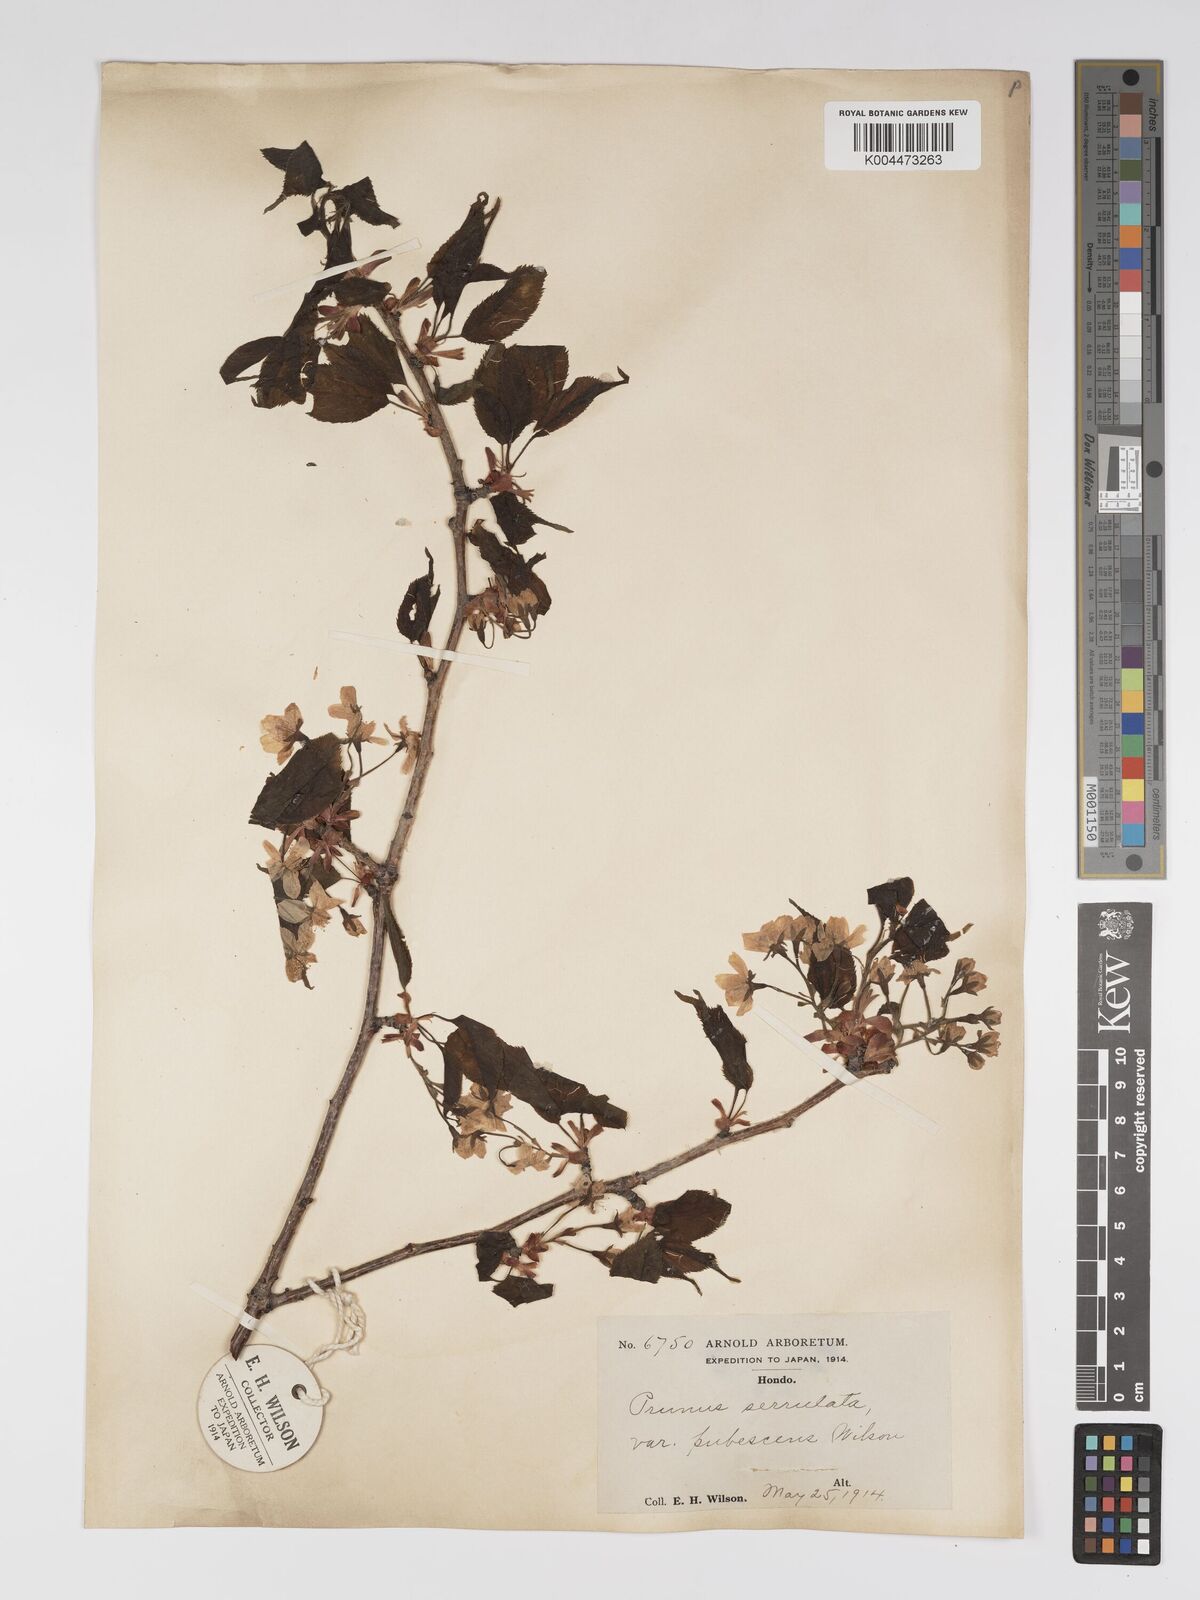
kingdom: Plantae
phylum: Tracheophyta
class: Magnoliopsida
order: Rosales
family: Rosaceae
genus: Prunus
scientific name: Prunus serrulata
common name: Japanese cherry
